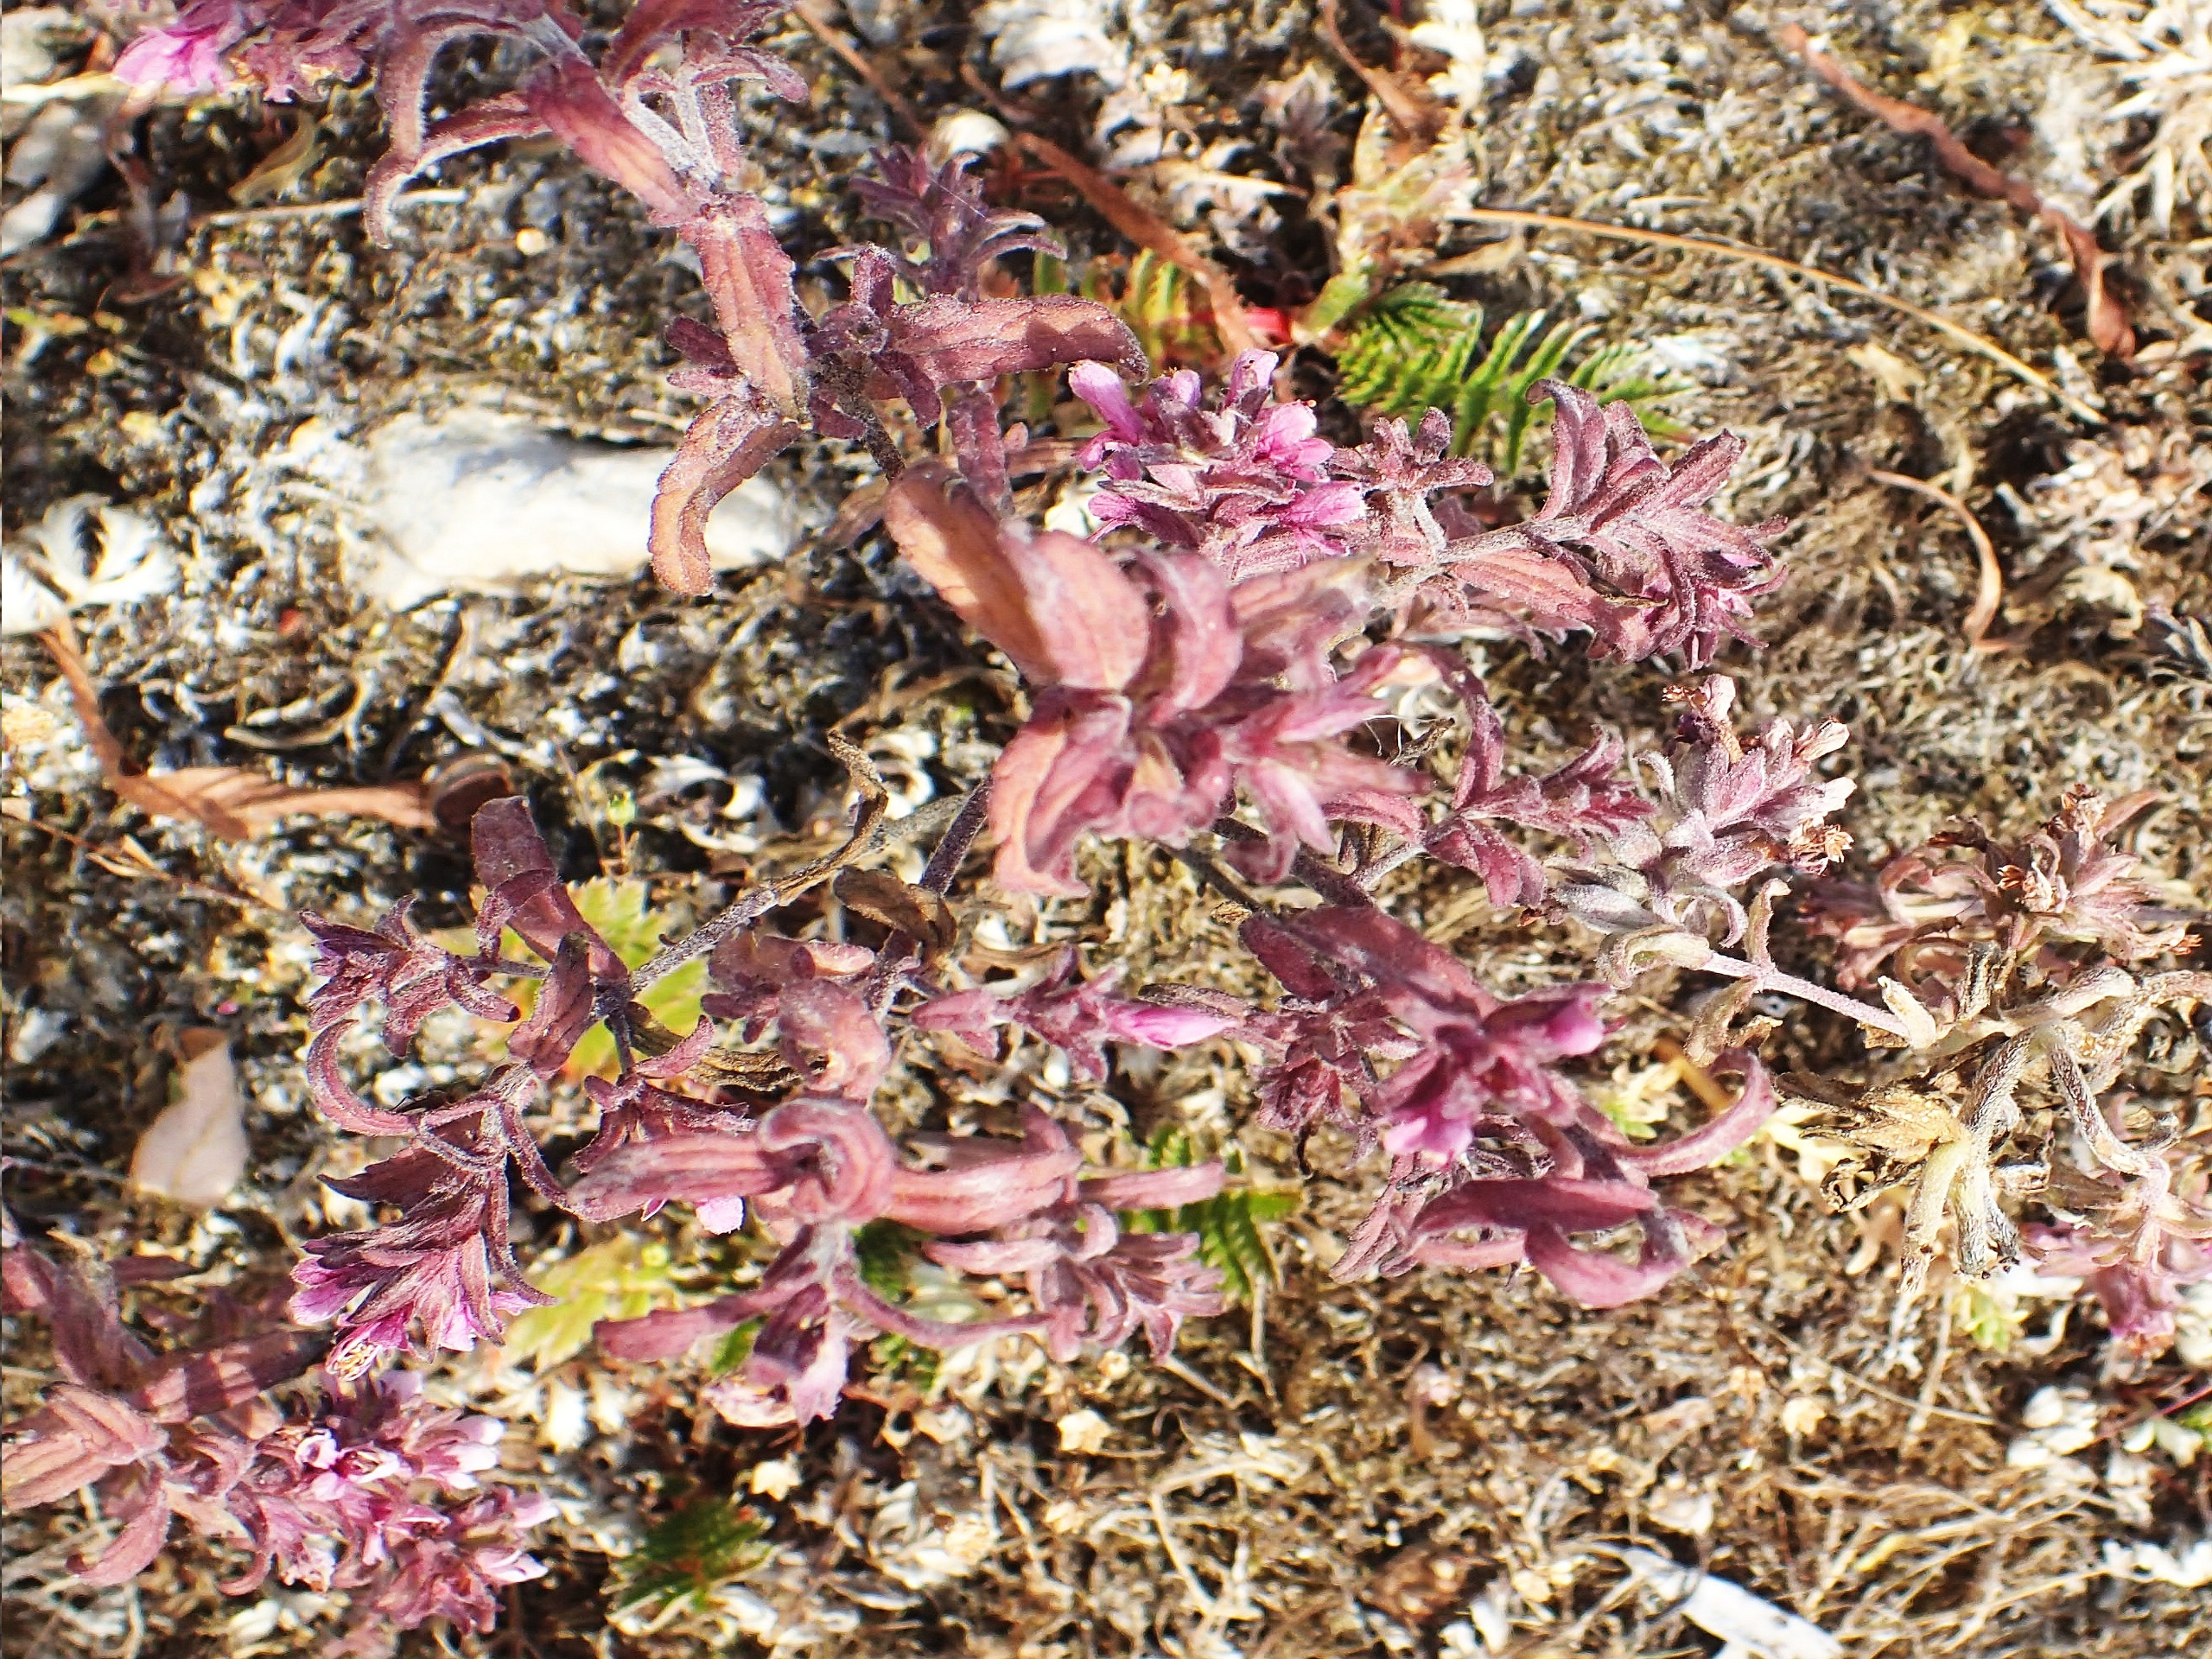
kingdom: Plantae
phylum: Tracheophyta
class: Magnoliopsida
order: Lamiales
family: Orobanchaceae
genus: Odontites
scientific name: Odontites vulgaris
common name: Høst-rødtop
